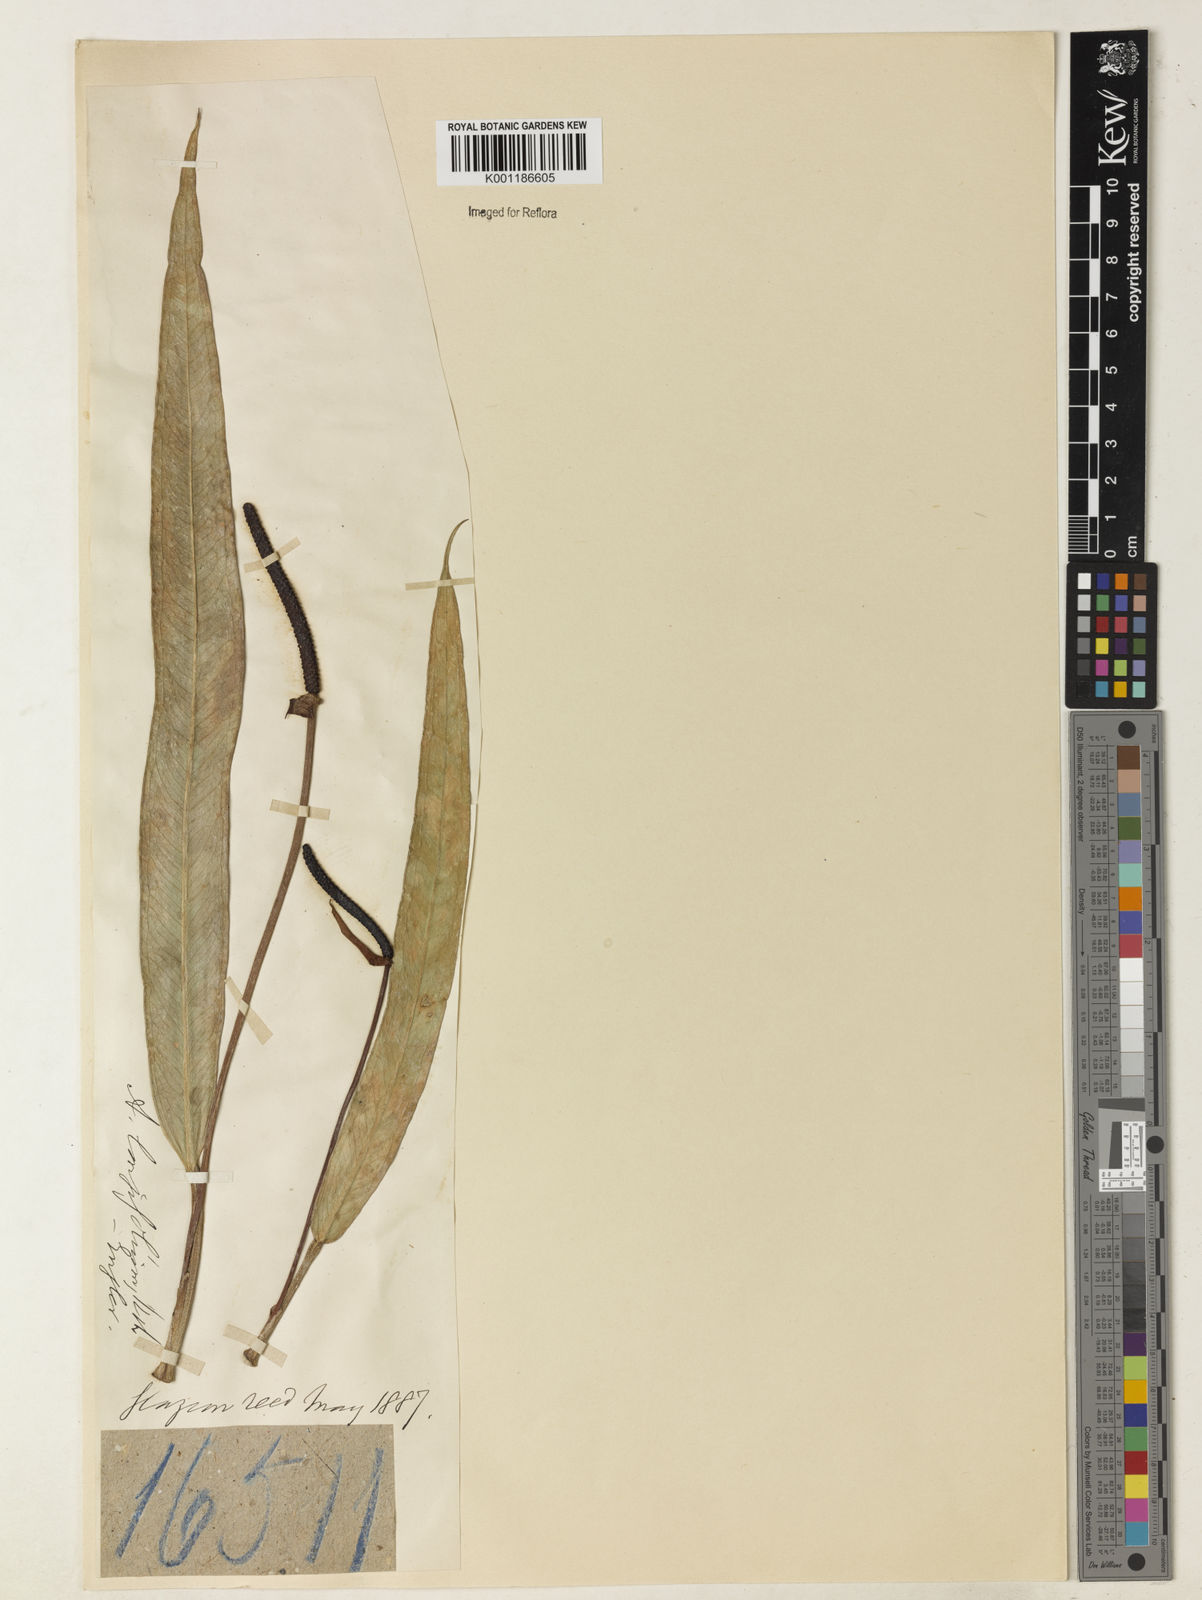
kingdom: Plantae
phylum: Tracheophyta
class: Liliopsida
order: Alismatales
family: Araceae
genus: Anthurium
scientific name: Anthurium longifolium
